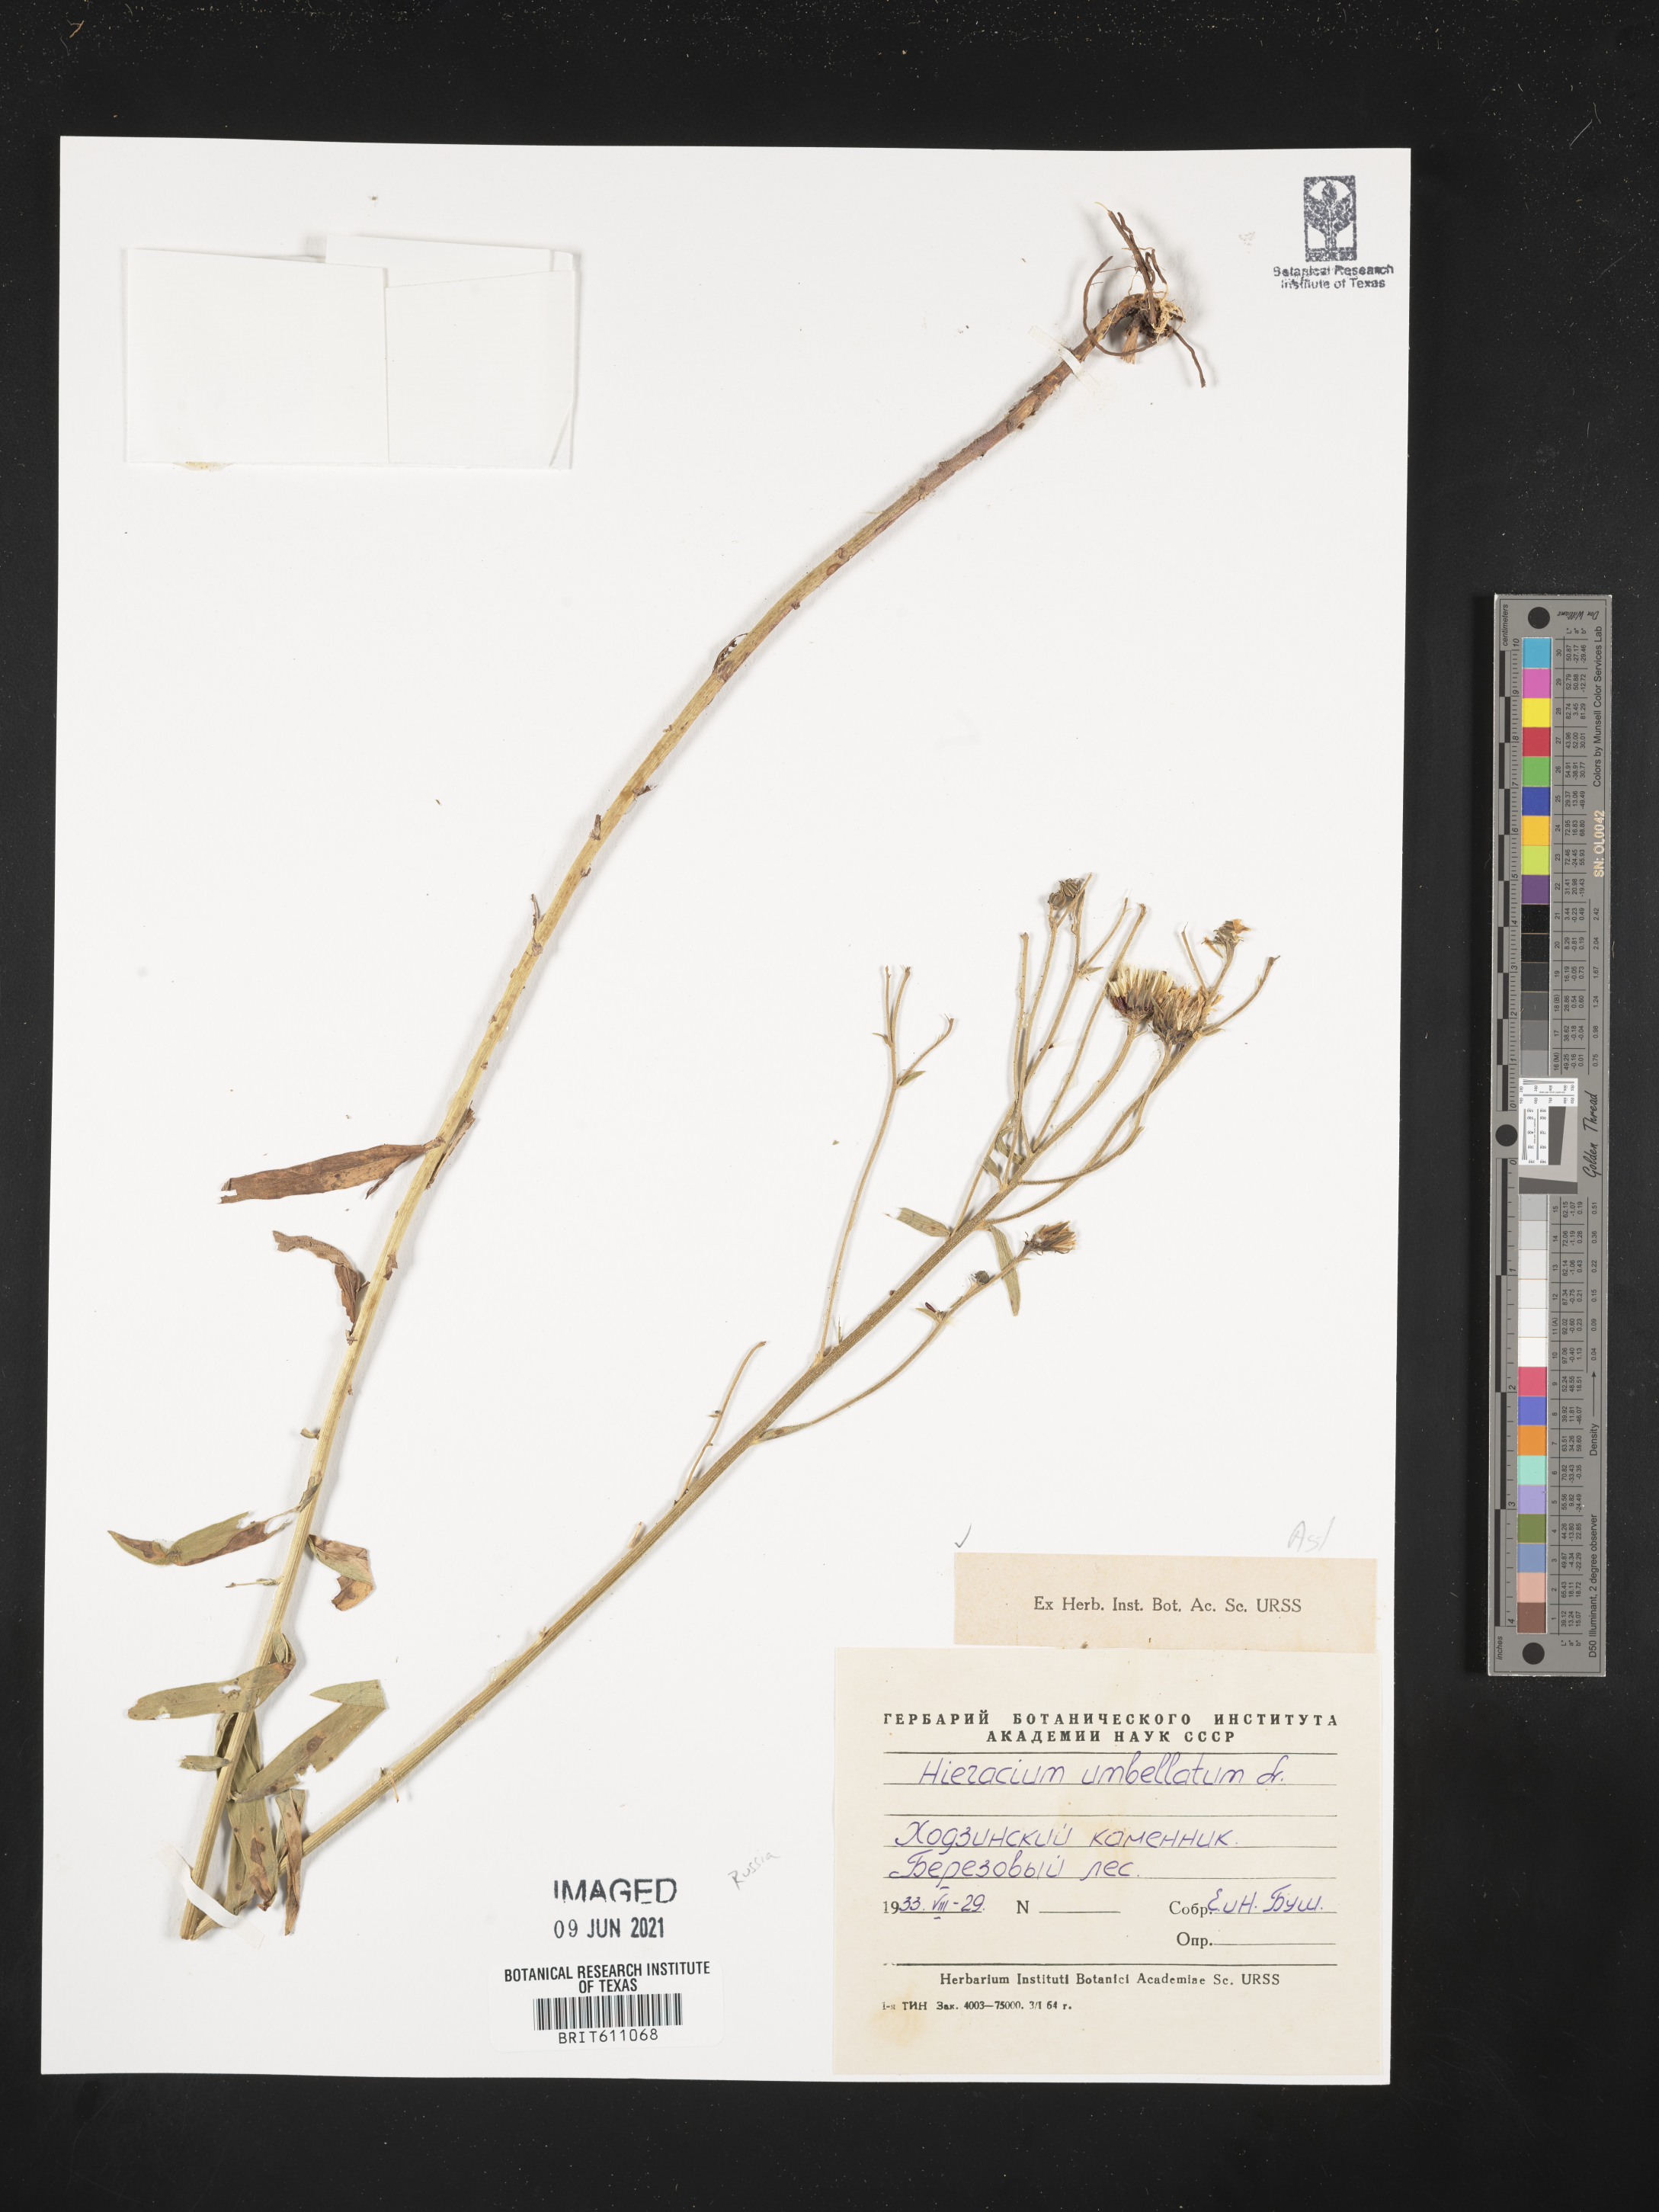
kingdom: Plantae
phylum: Tracheophyta
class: Magnoliopsida
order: Asterales
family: Asteraceae
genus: Hieracium
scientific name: Hieracium umbellatum
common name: Northern hawkweed
